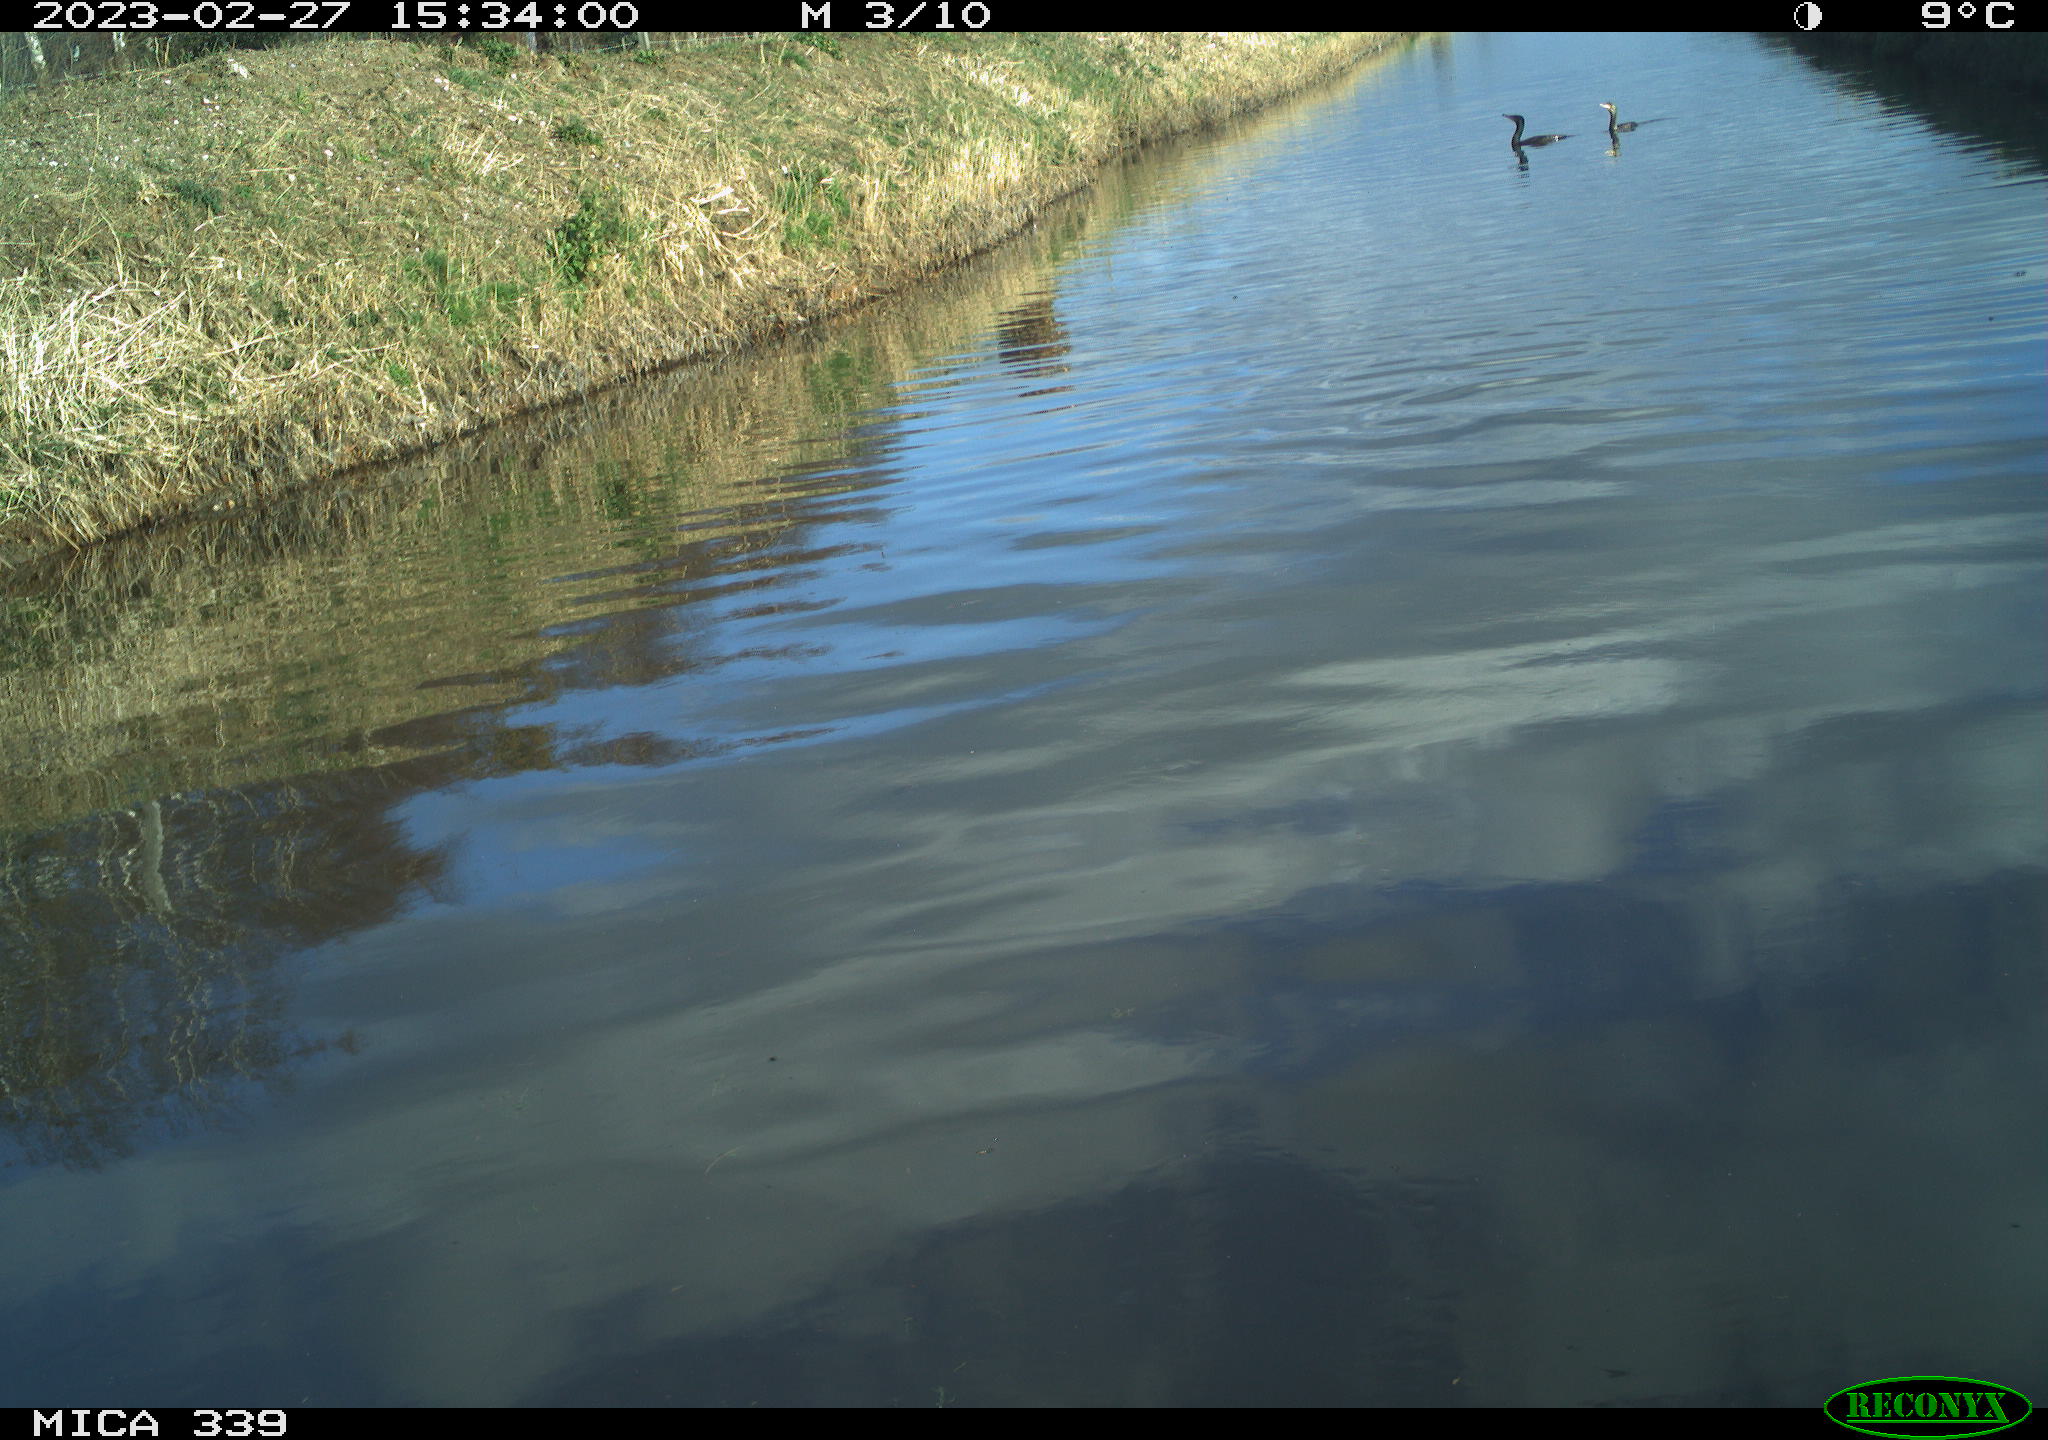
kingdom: Animalia
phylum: Chordata
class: Aves
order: Suliformes
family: Phalacrocoracidae
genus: Phalacrocorax
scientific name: Phalacrocorax carbo
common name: Great cormorant
